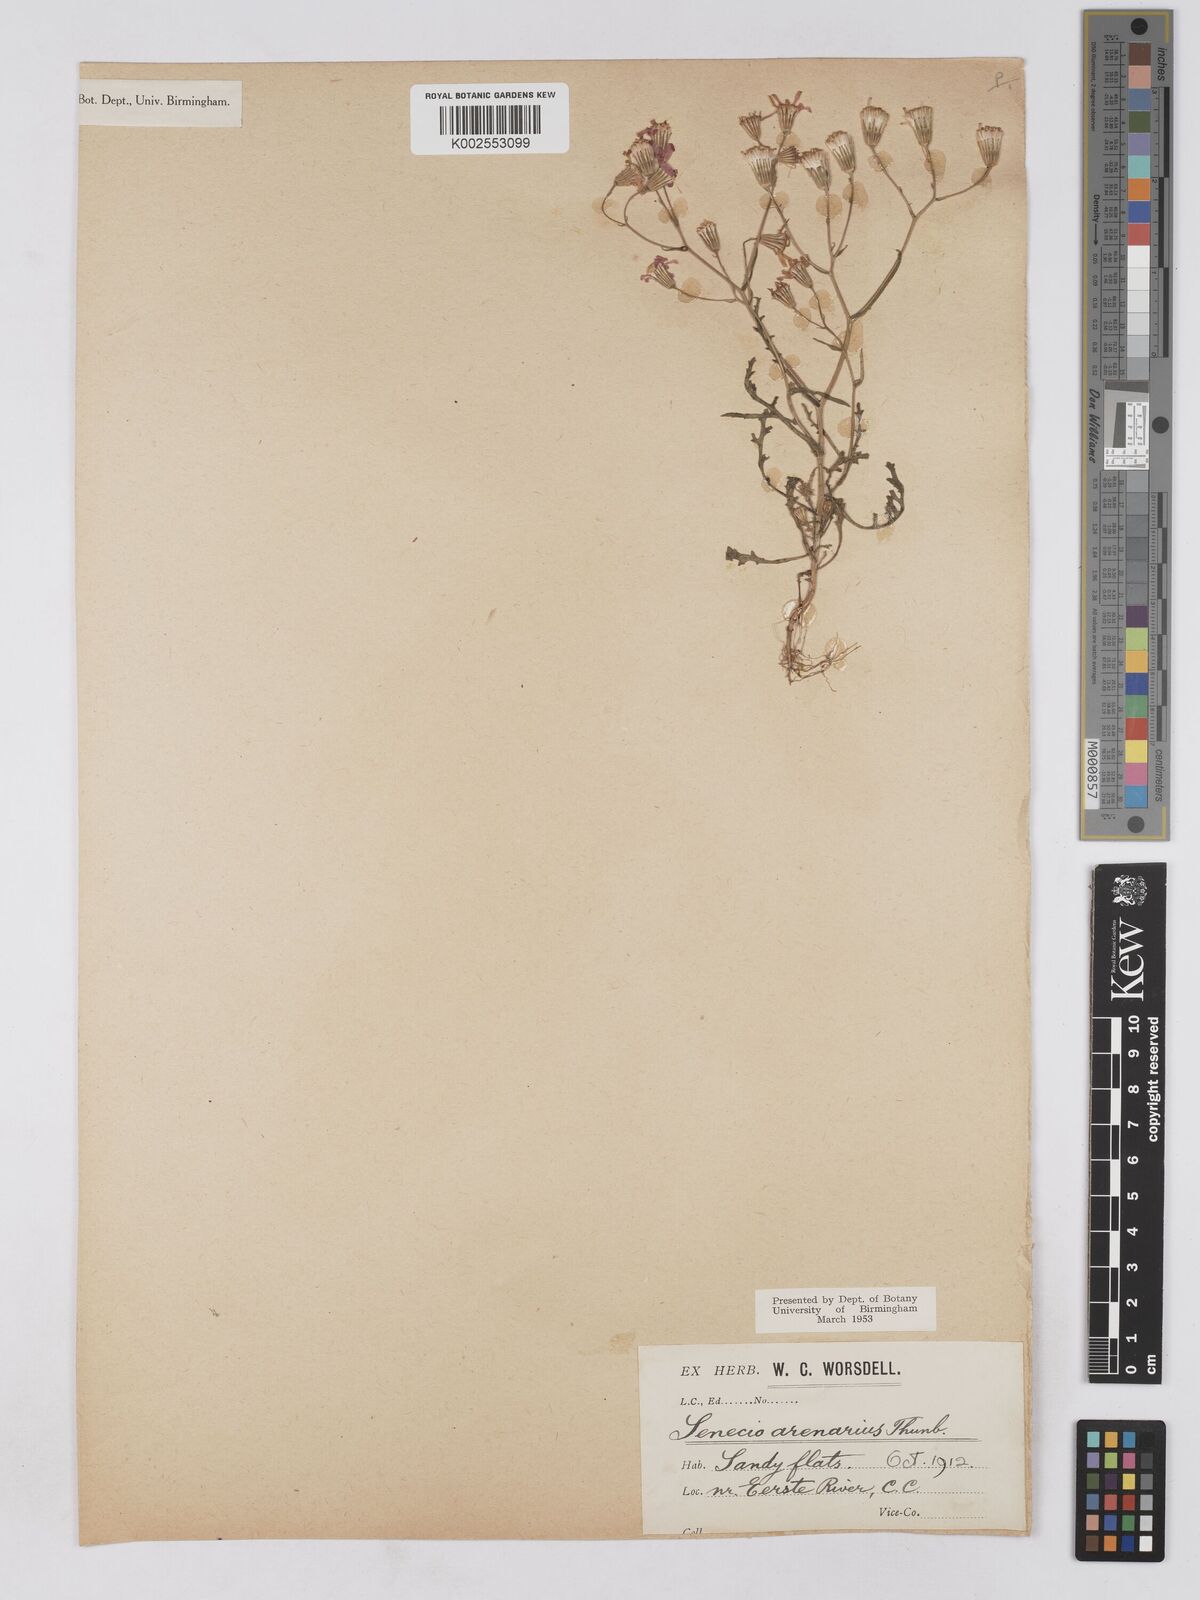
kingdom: Plantae
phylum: Tracheophyta
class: Magnoliopsida
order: Asterales
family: Asteraceae
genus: Senecio
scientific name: Senecio arenarius
